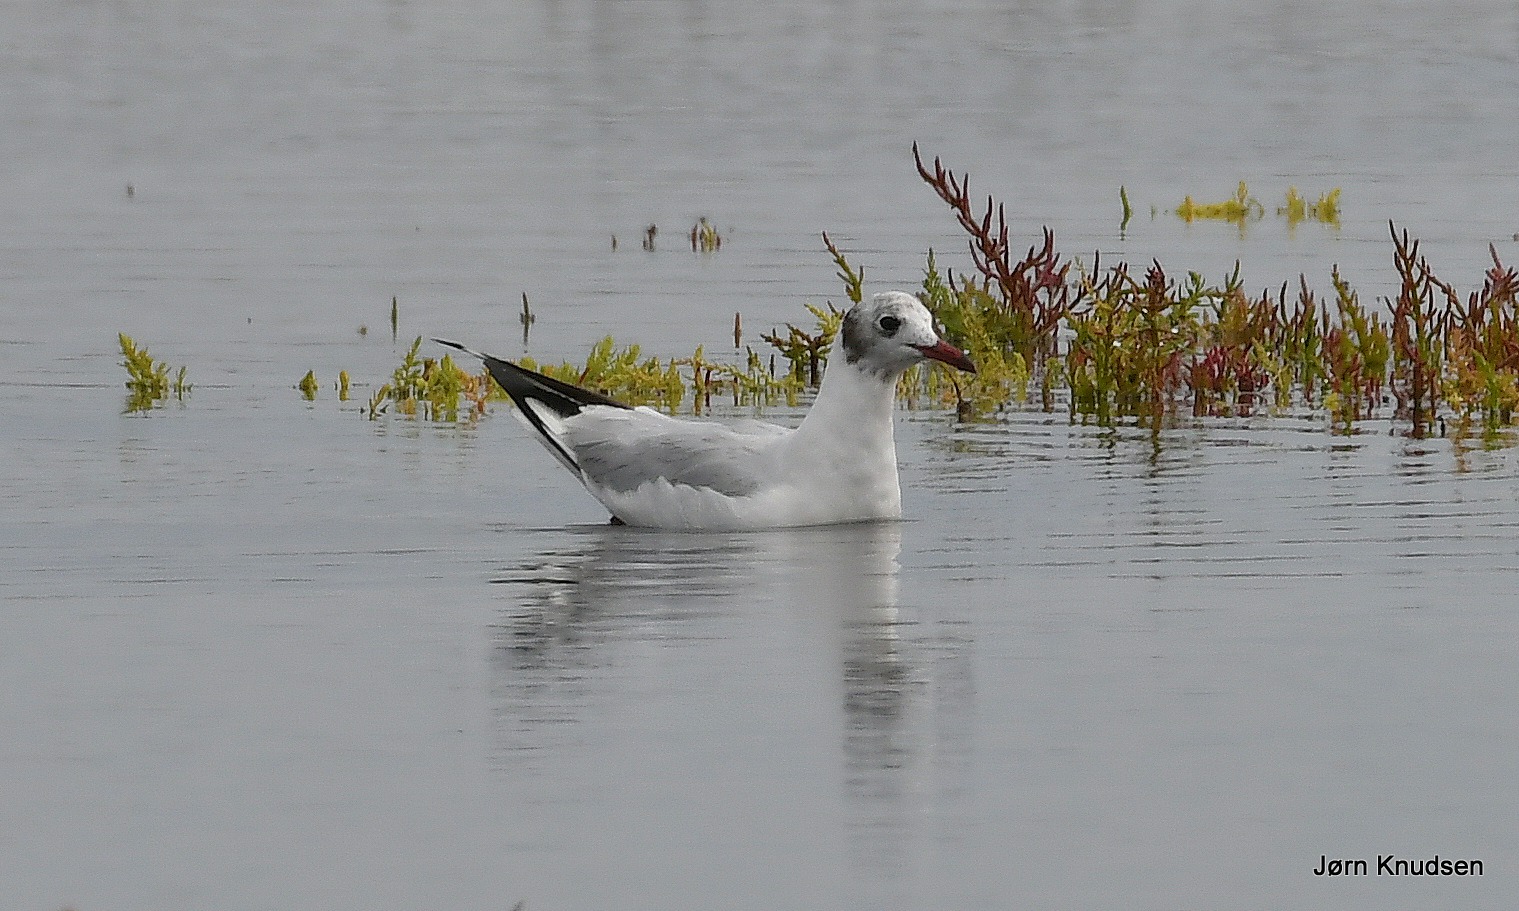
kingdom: Animalia
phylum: Chordata
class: Aves
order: Charadriiformes
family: Laridae
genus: Chroicocephalus
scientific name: Chroicocephalus ridibundus
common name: Hættemåge
